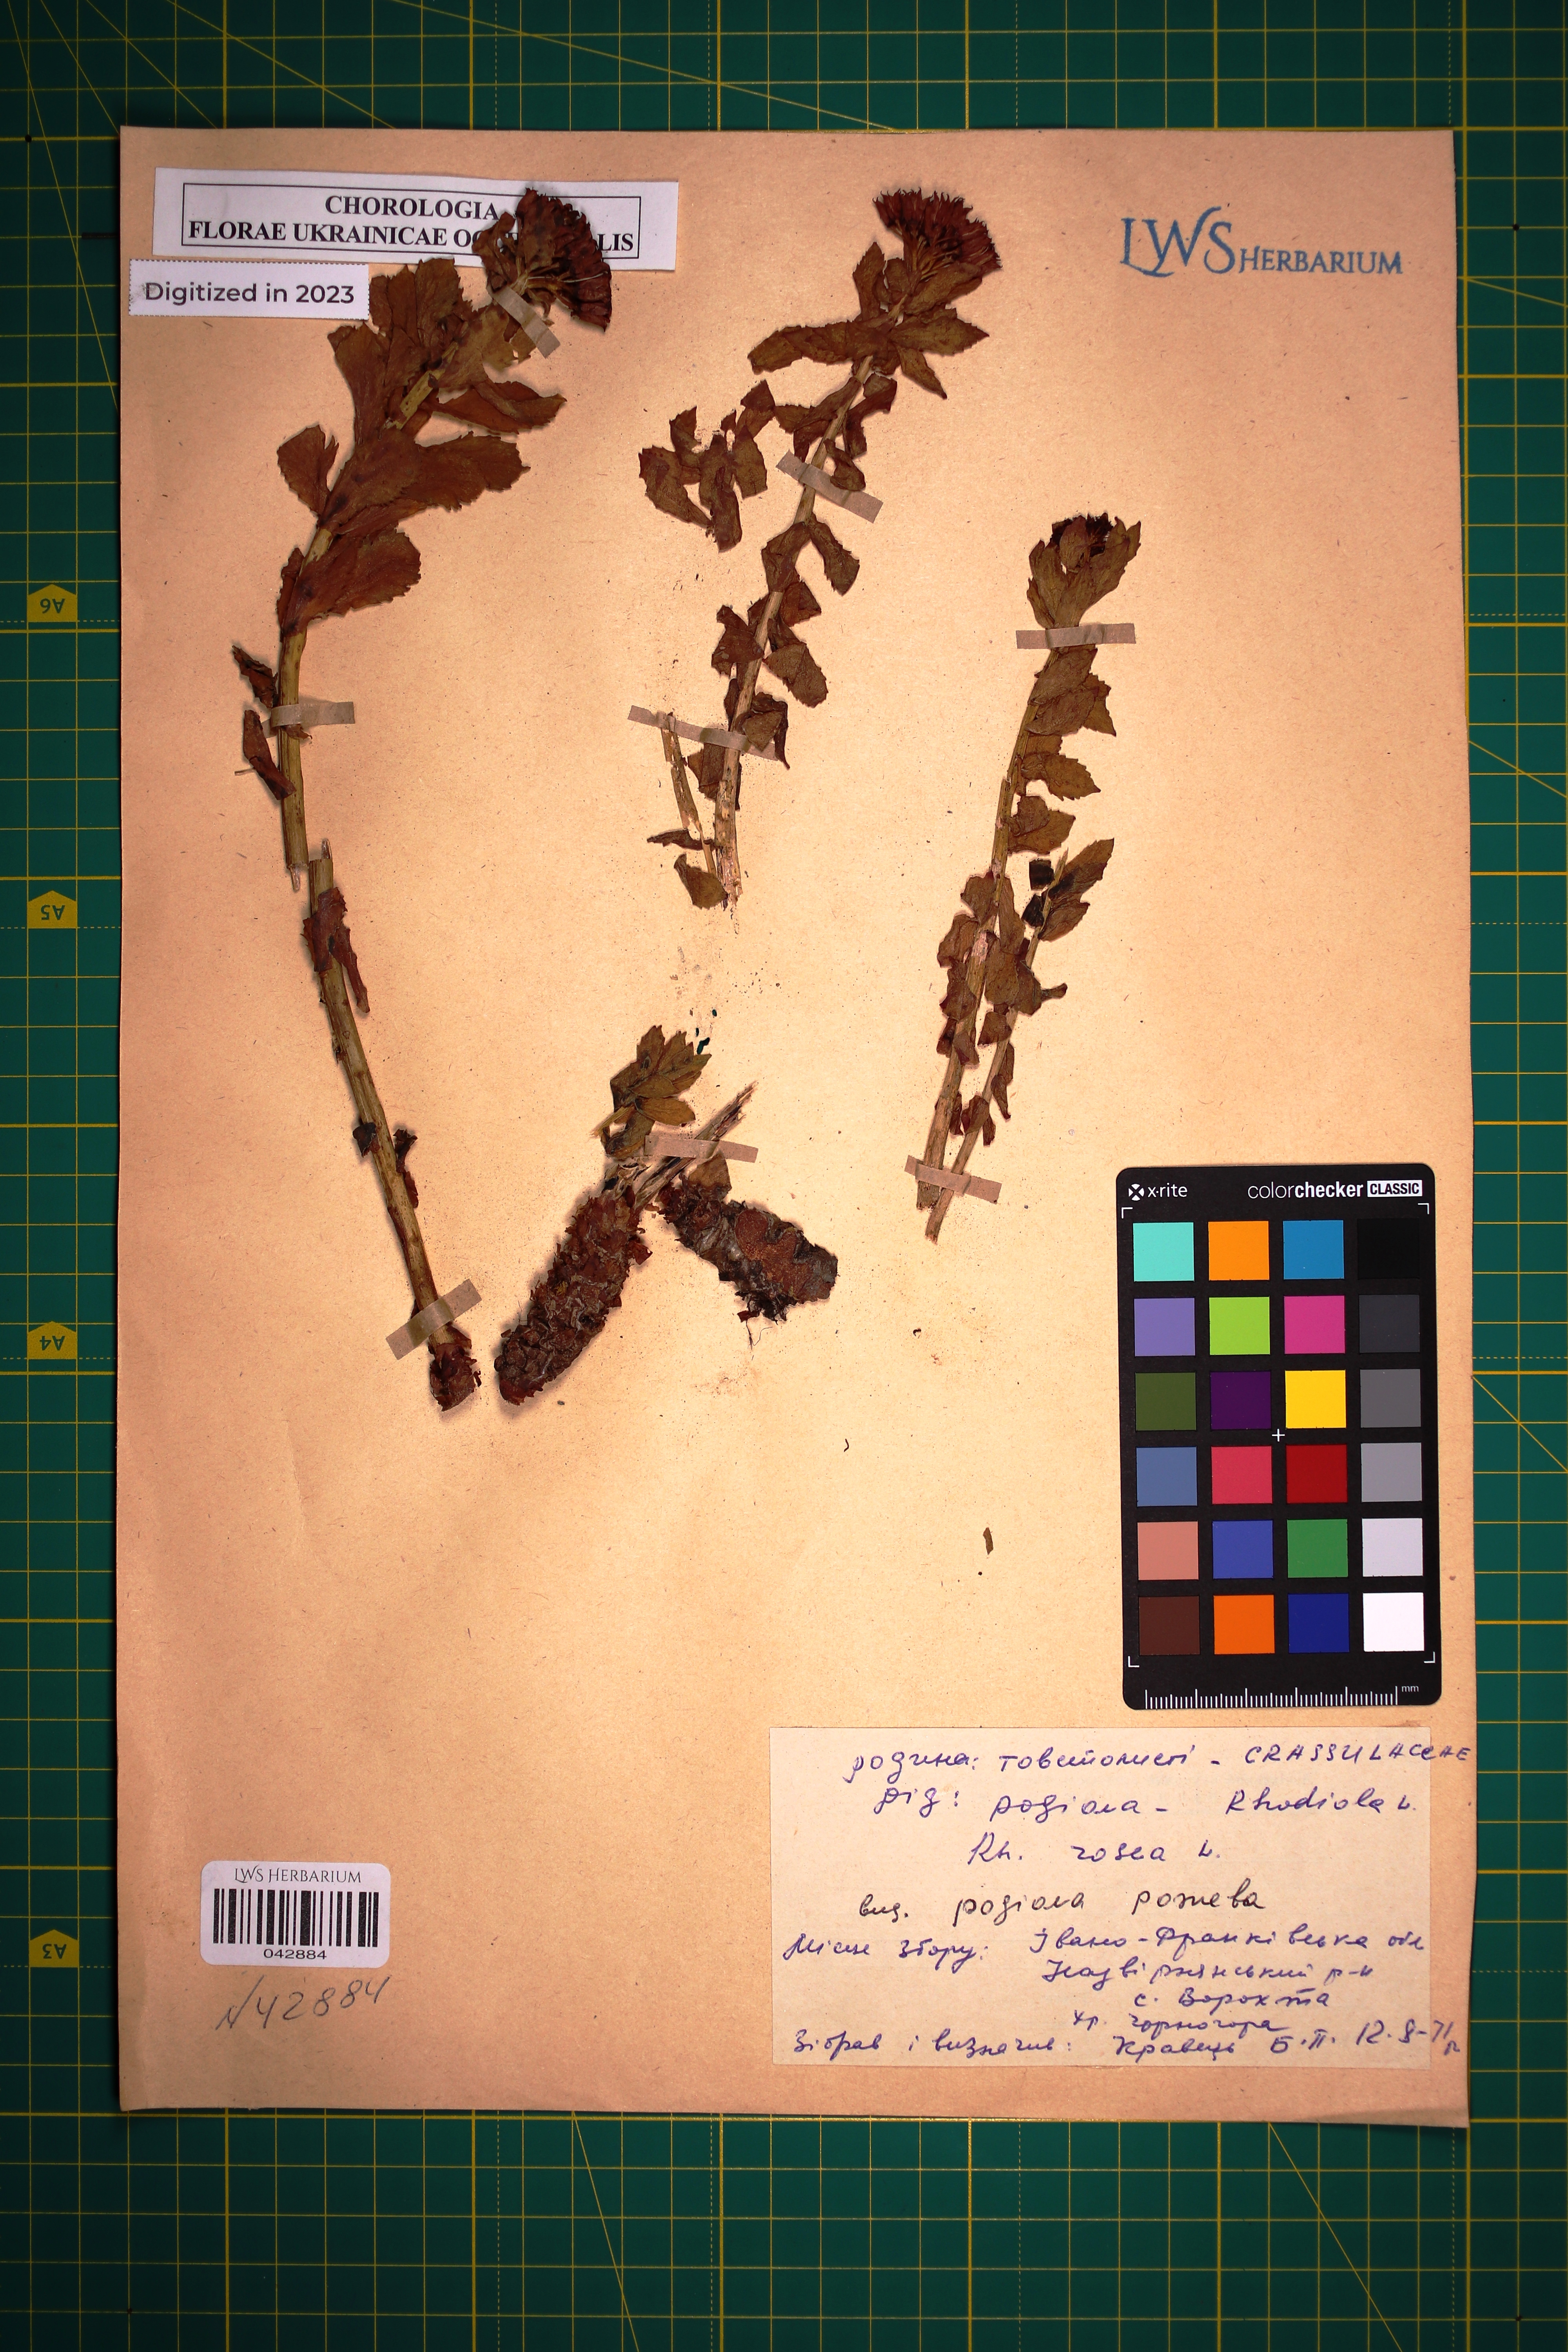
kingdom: Plantae
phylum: Tracheophyta
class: Magnoliopsida
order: Saxifragales
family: Crassulaceae
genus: Rhodiola
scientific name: Rhodiola rosea
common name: Roseroot
